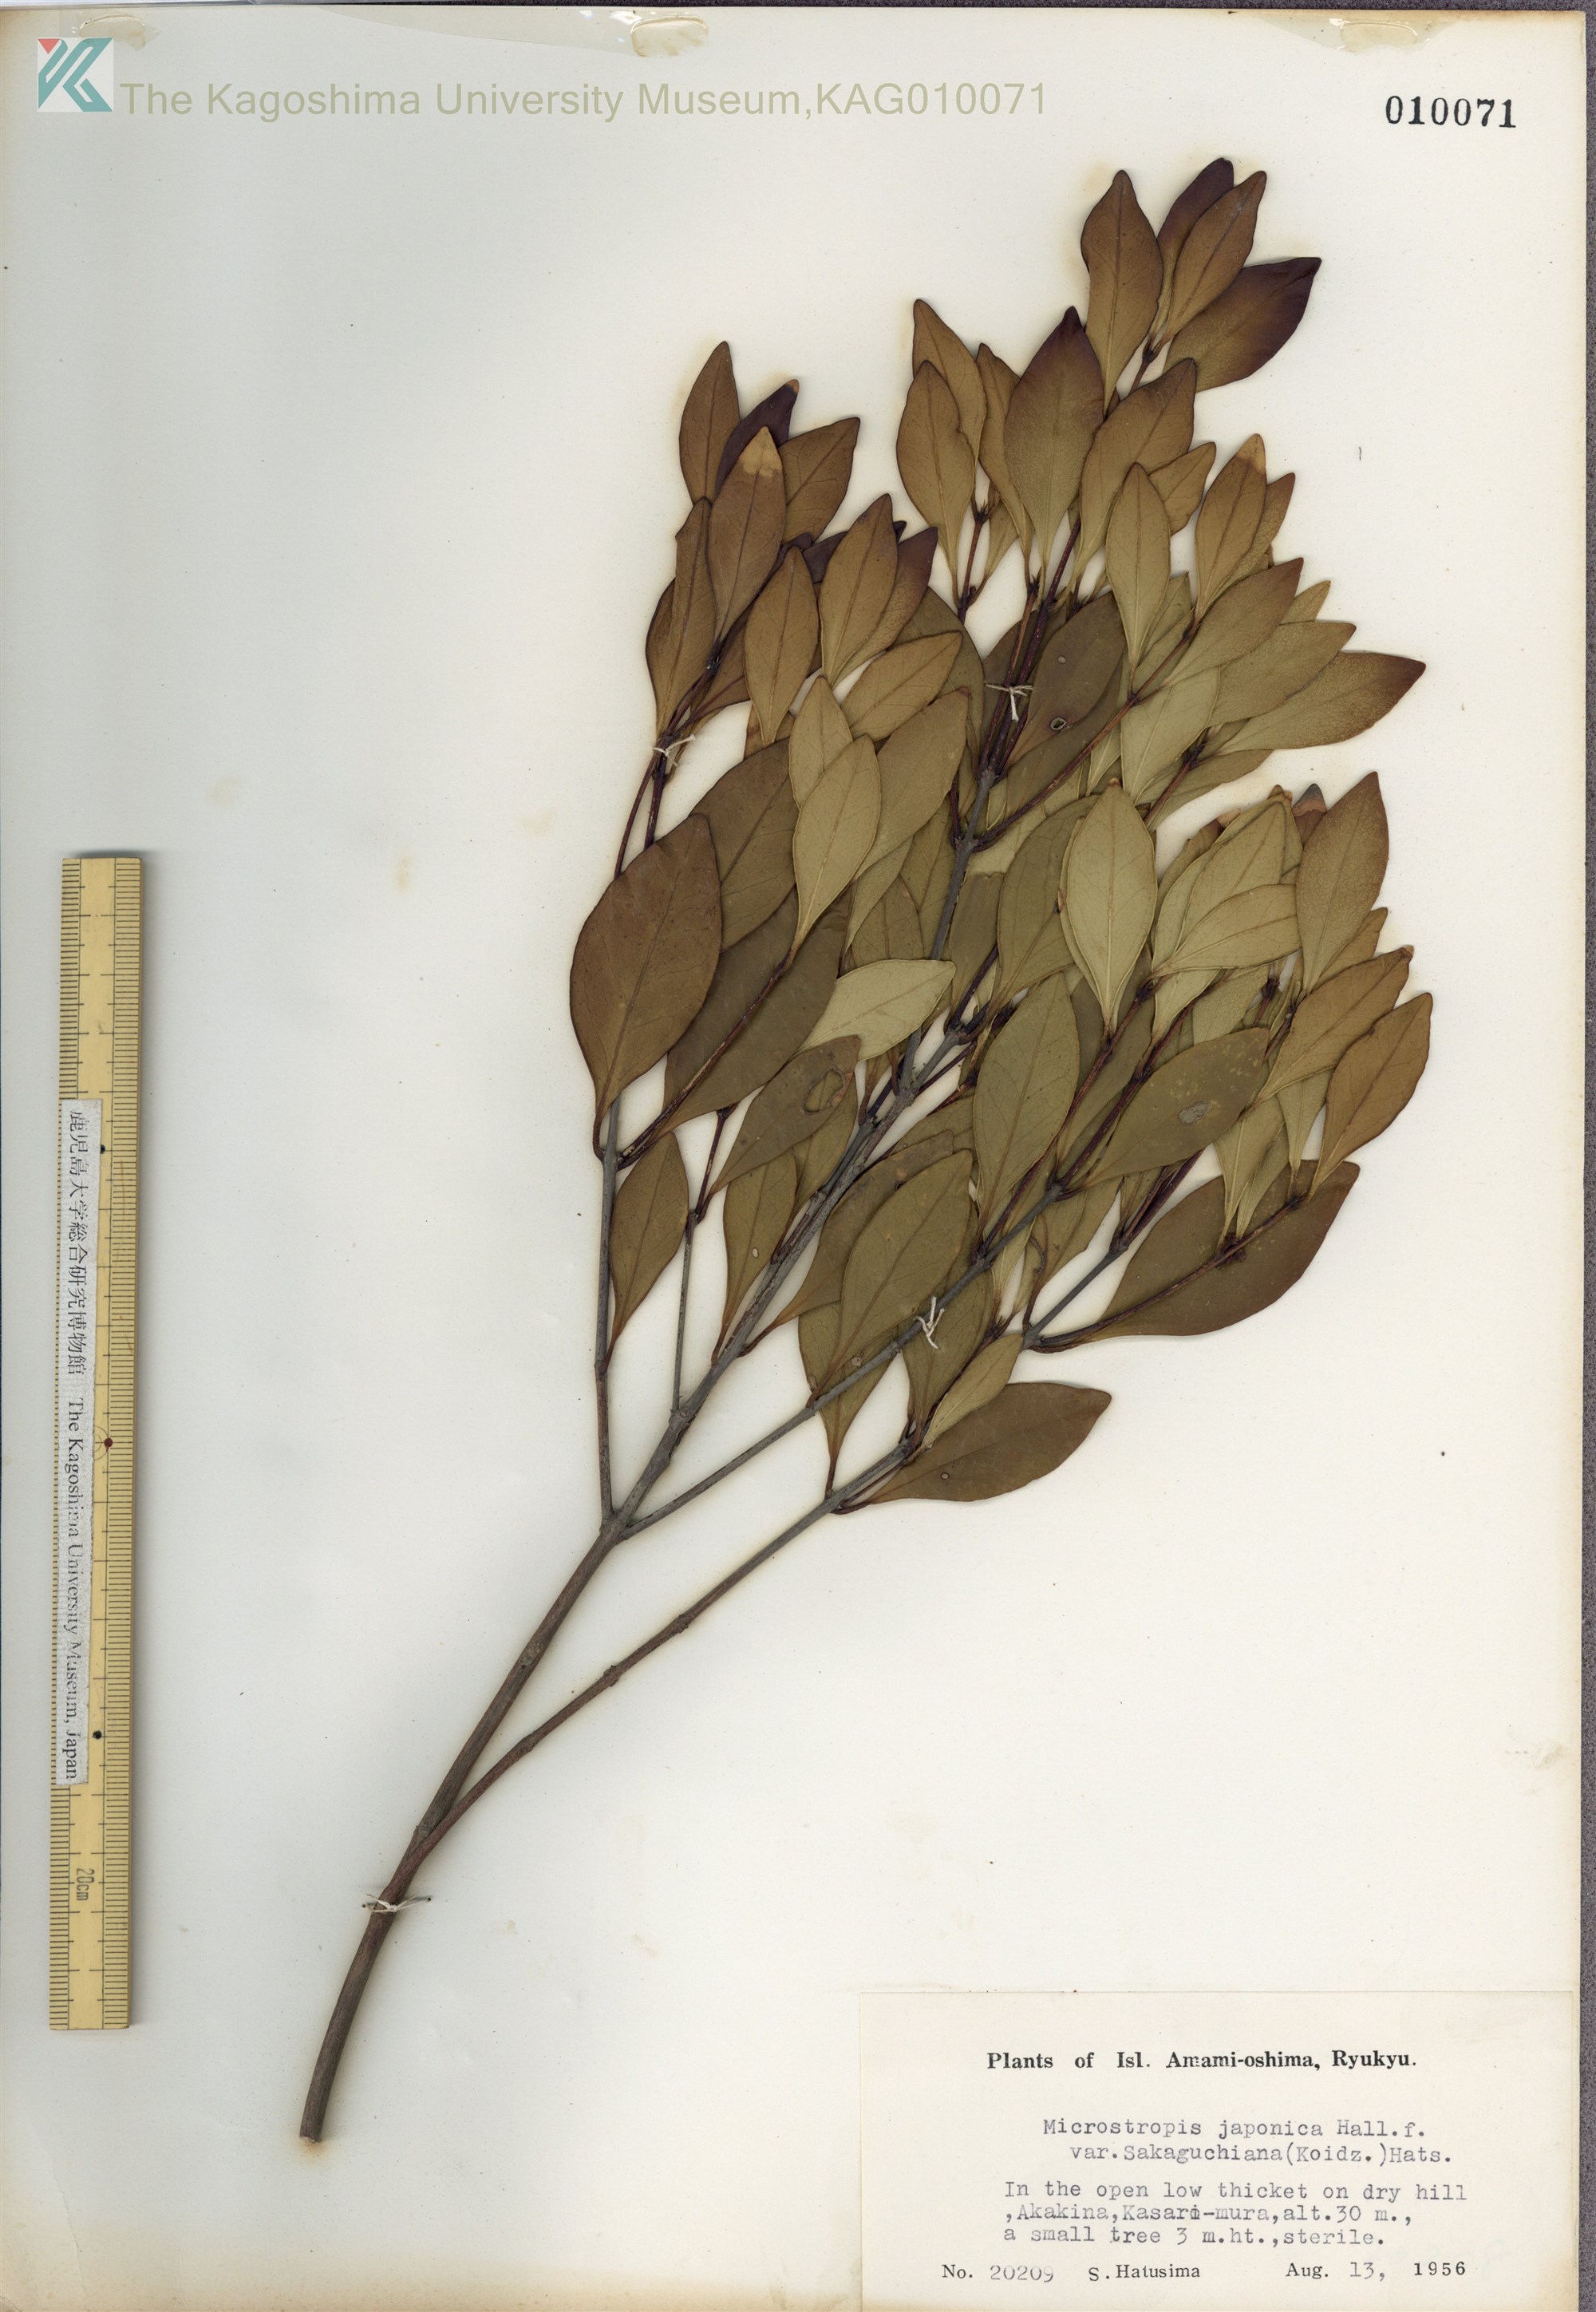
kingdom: Plantae
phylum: Tracheophyta
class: Magnoliopsida
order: Celastrales
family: Celastraceae
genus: Microtropis
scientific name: Microtropis japonica
